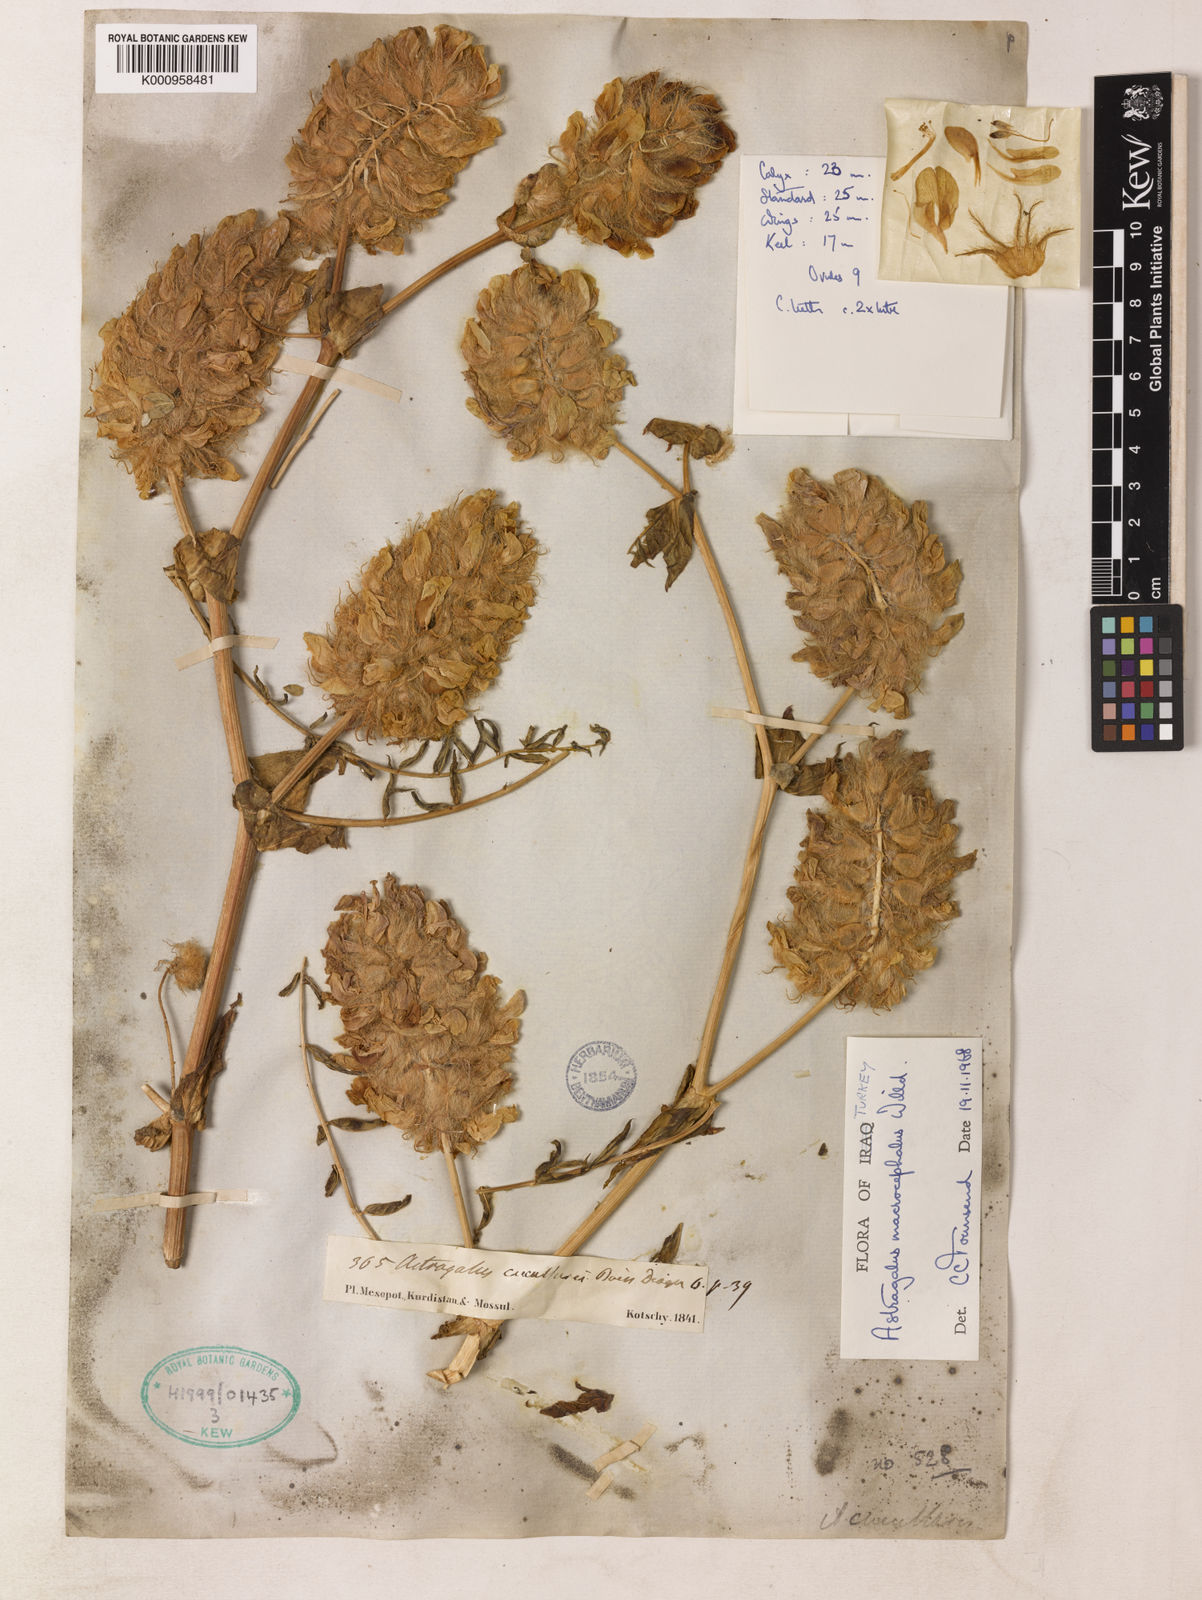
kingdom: Plantae
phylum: Tracheophyta
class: Magnoliopsida
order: Fabales
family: Fabaceae
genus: Astragalus
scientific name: Astragalus macrocephalus
